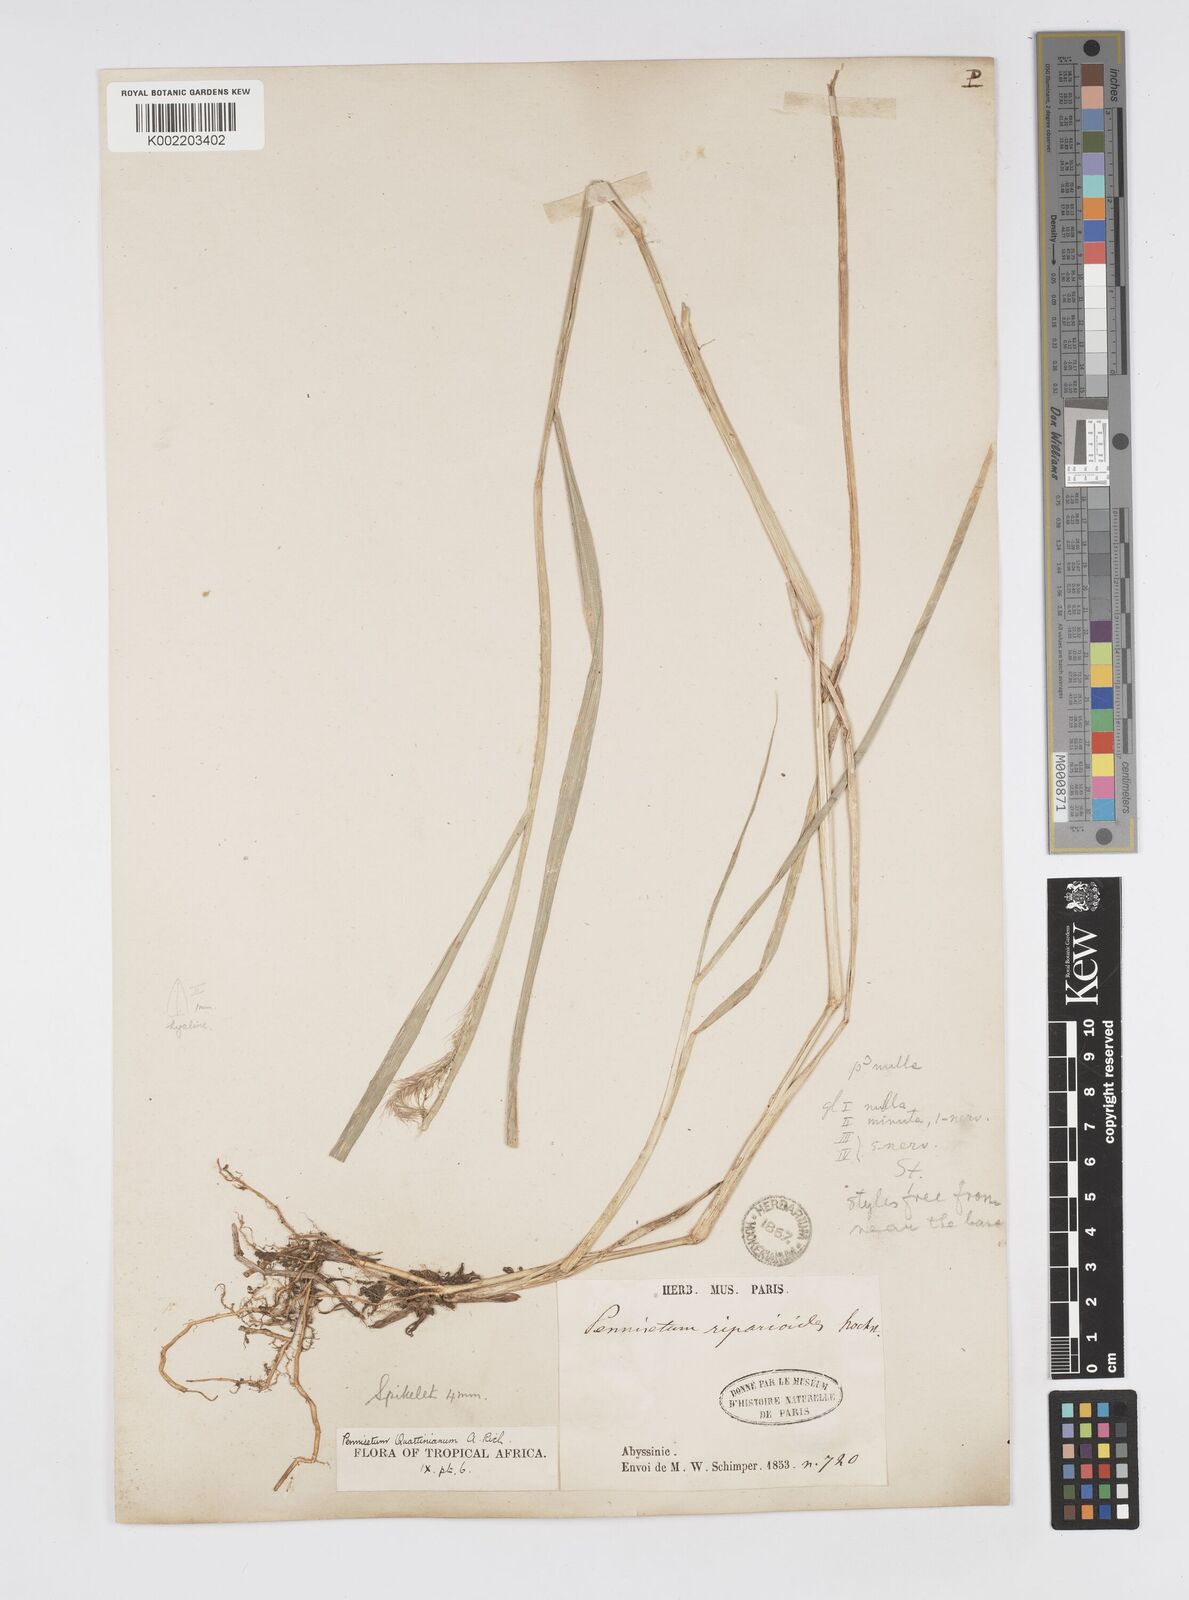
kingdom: Plantae
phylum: Tracheophyta
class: Liliopsida
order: Poales
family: Poaceae
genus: Cenchrus
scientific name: Cenchrus caudatus
